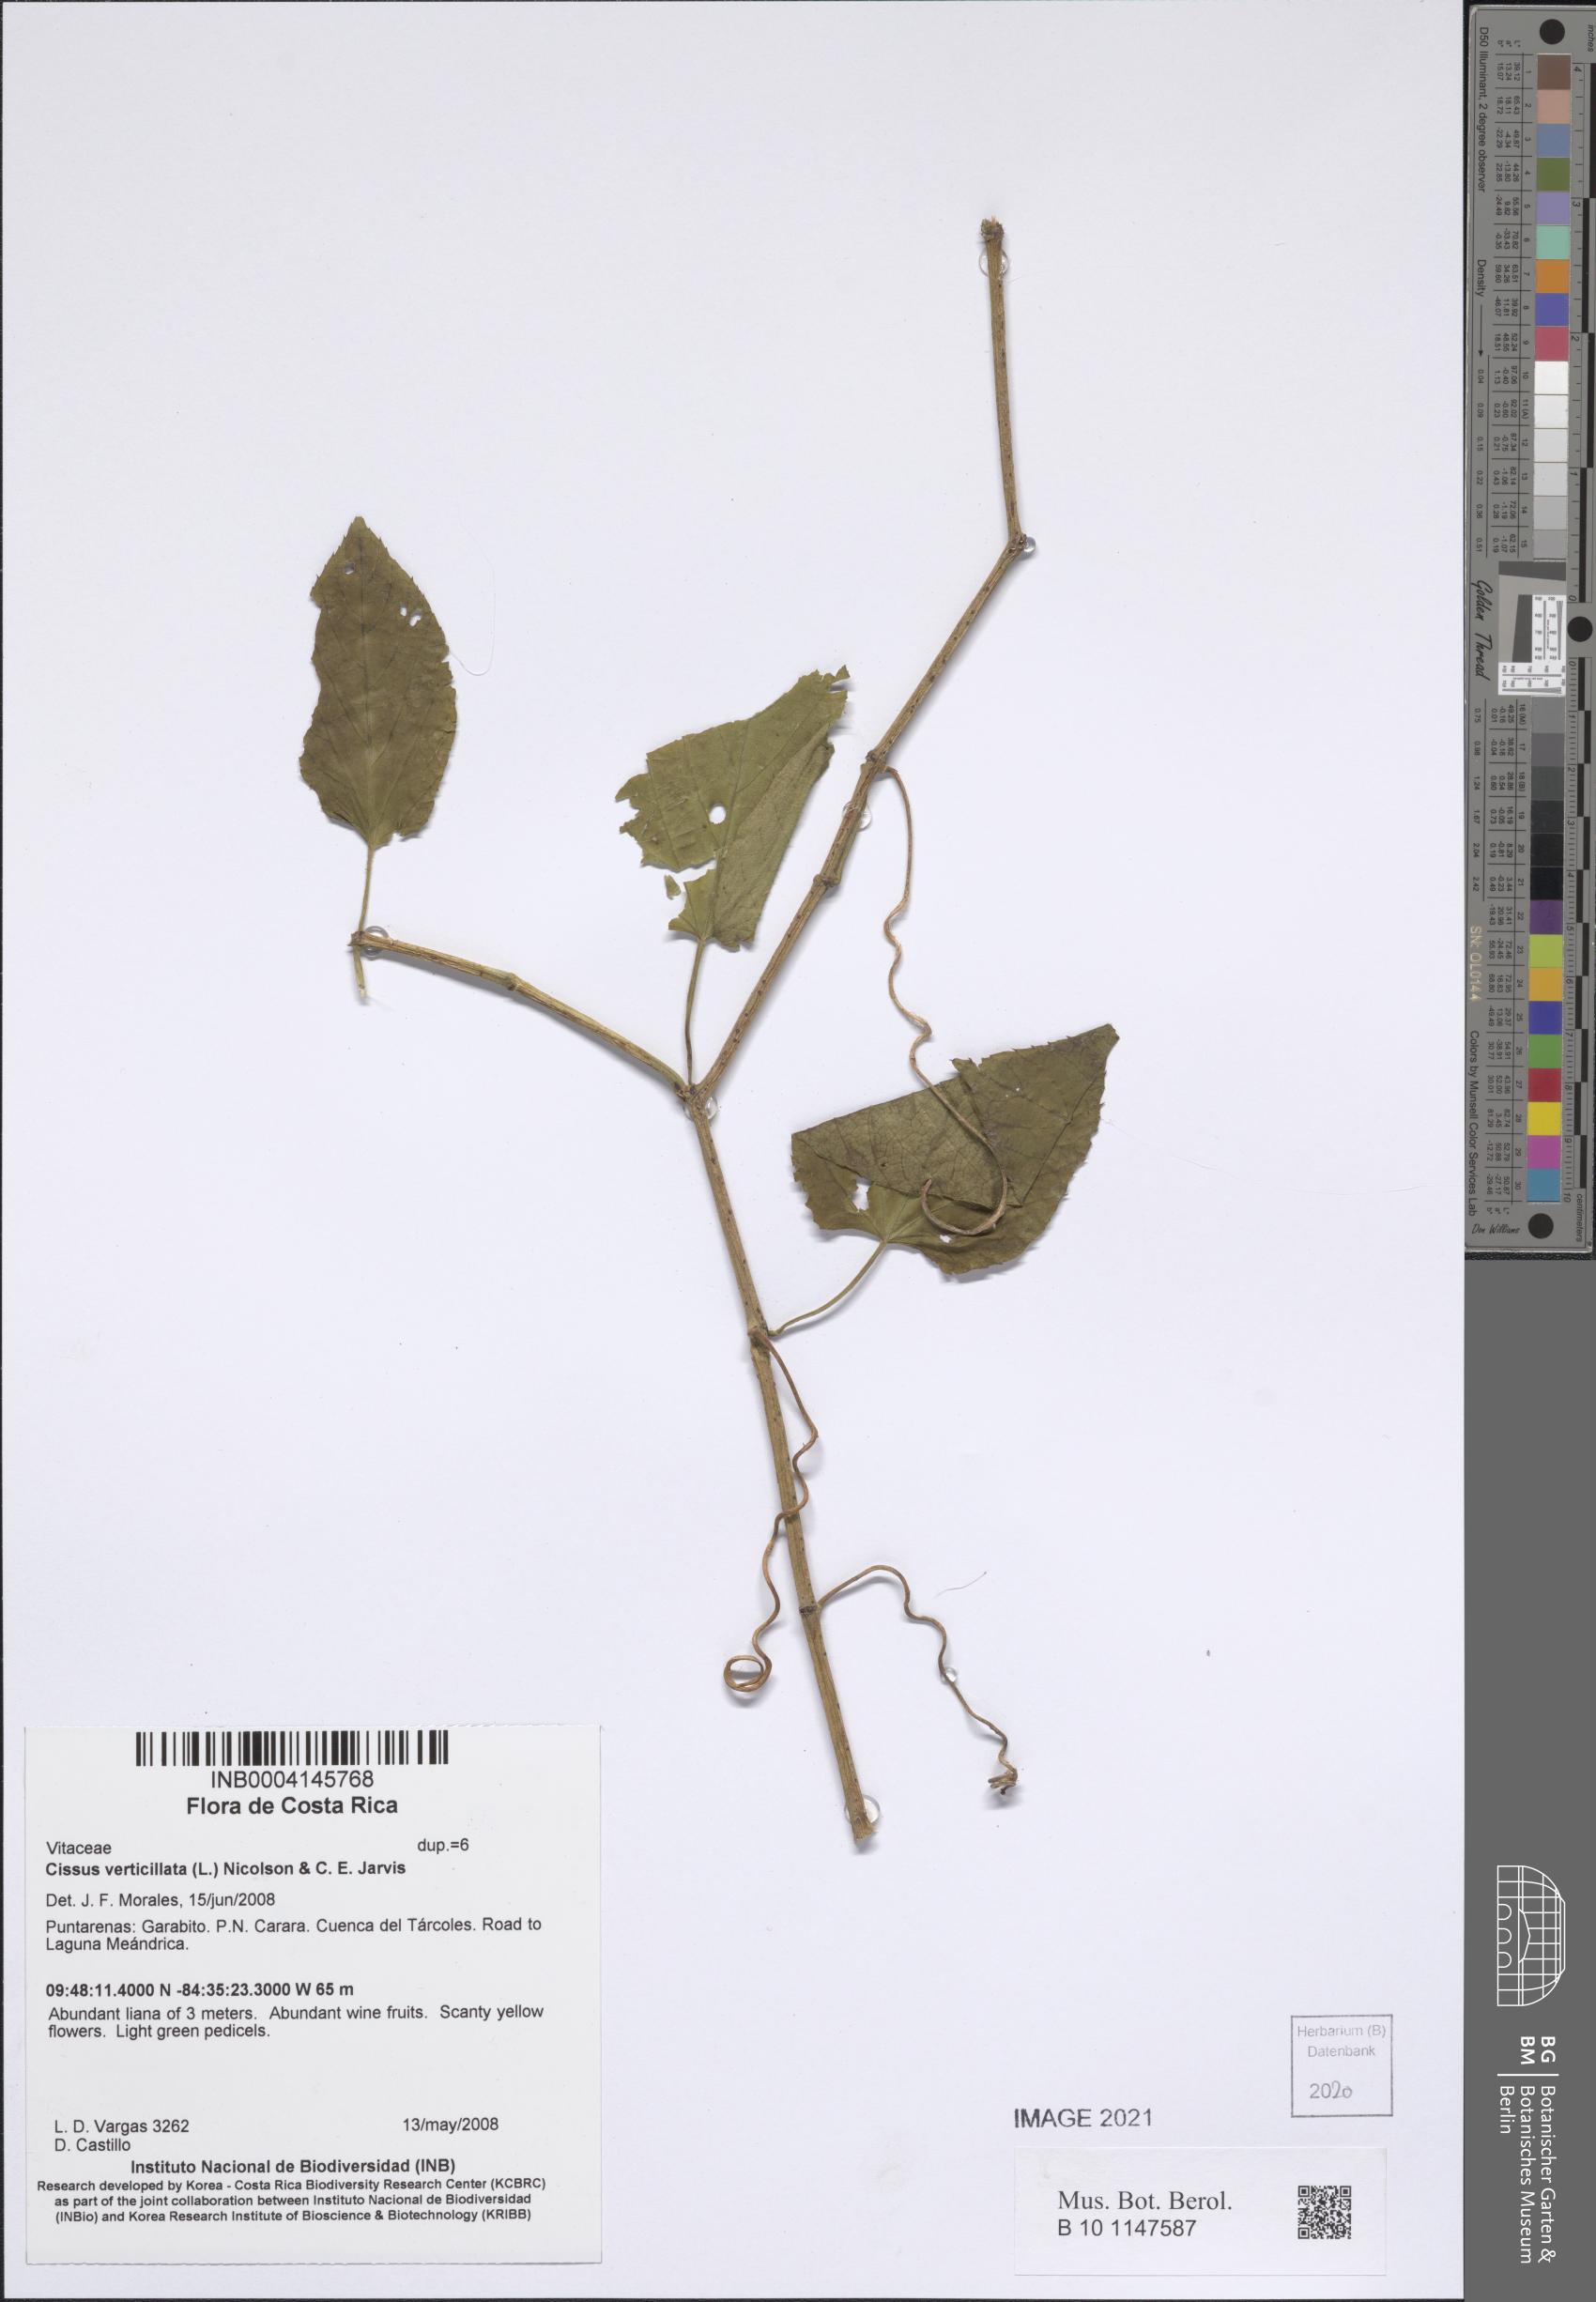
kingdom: Plantae
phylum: Tracheophyta
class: Magnoliopsida
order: Vitales
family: Vitaceae
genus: Cissus
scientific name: Cissus verticillata
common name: Princess vine
